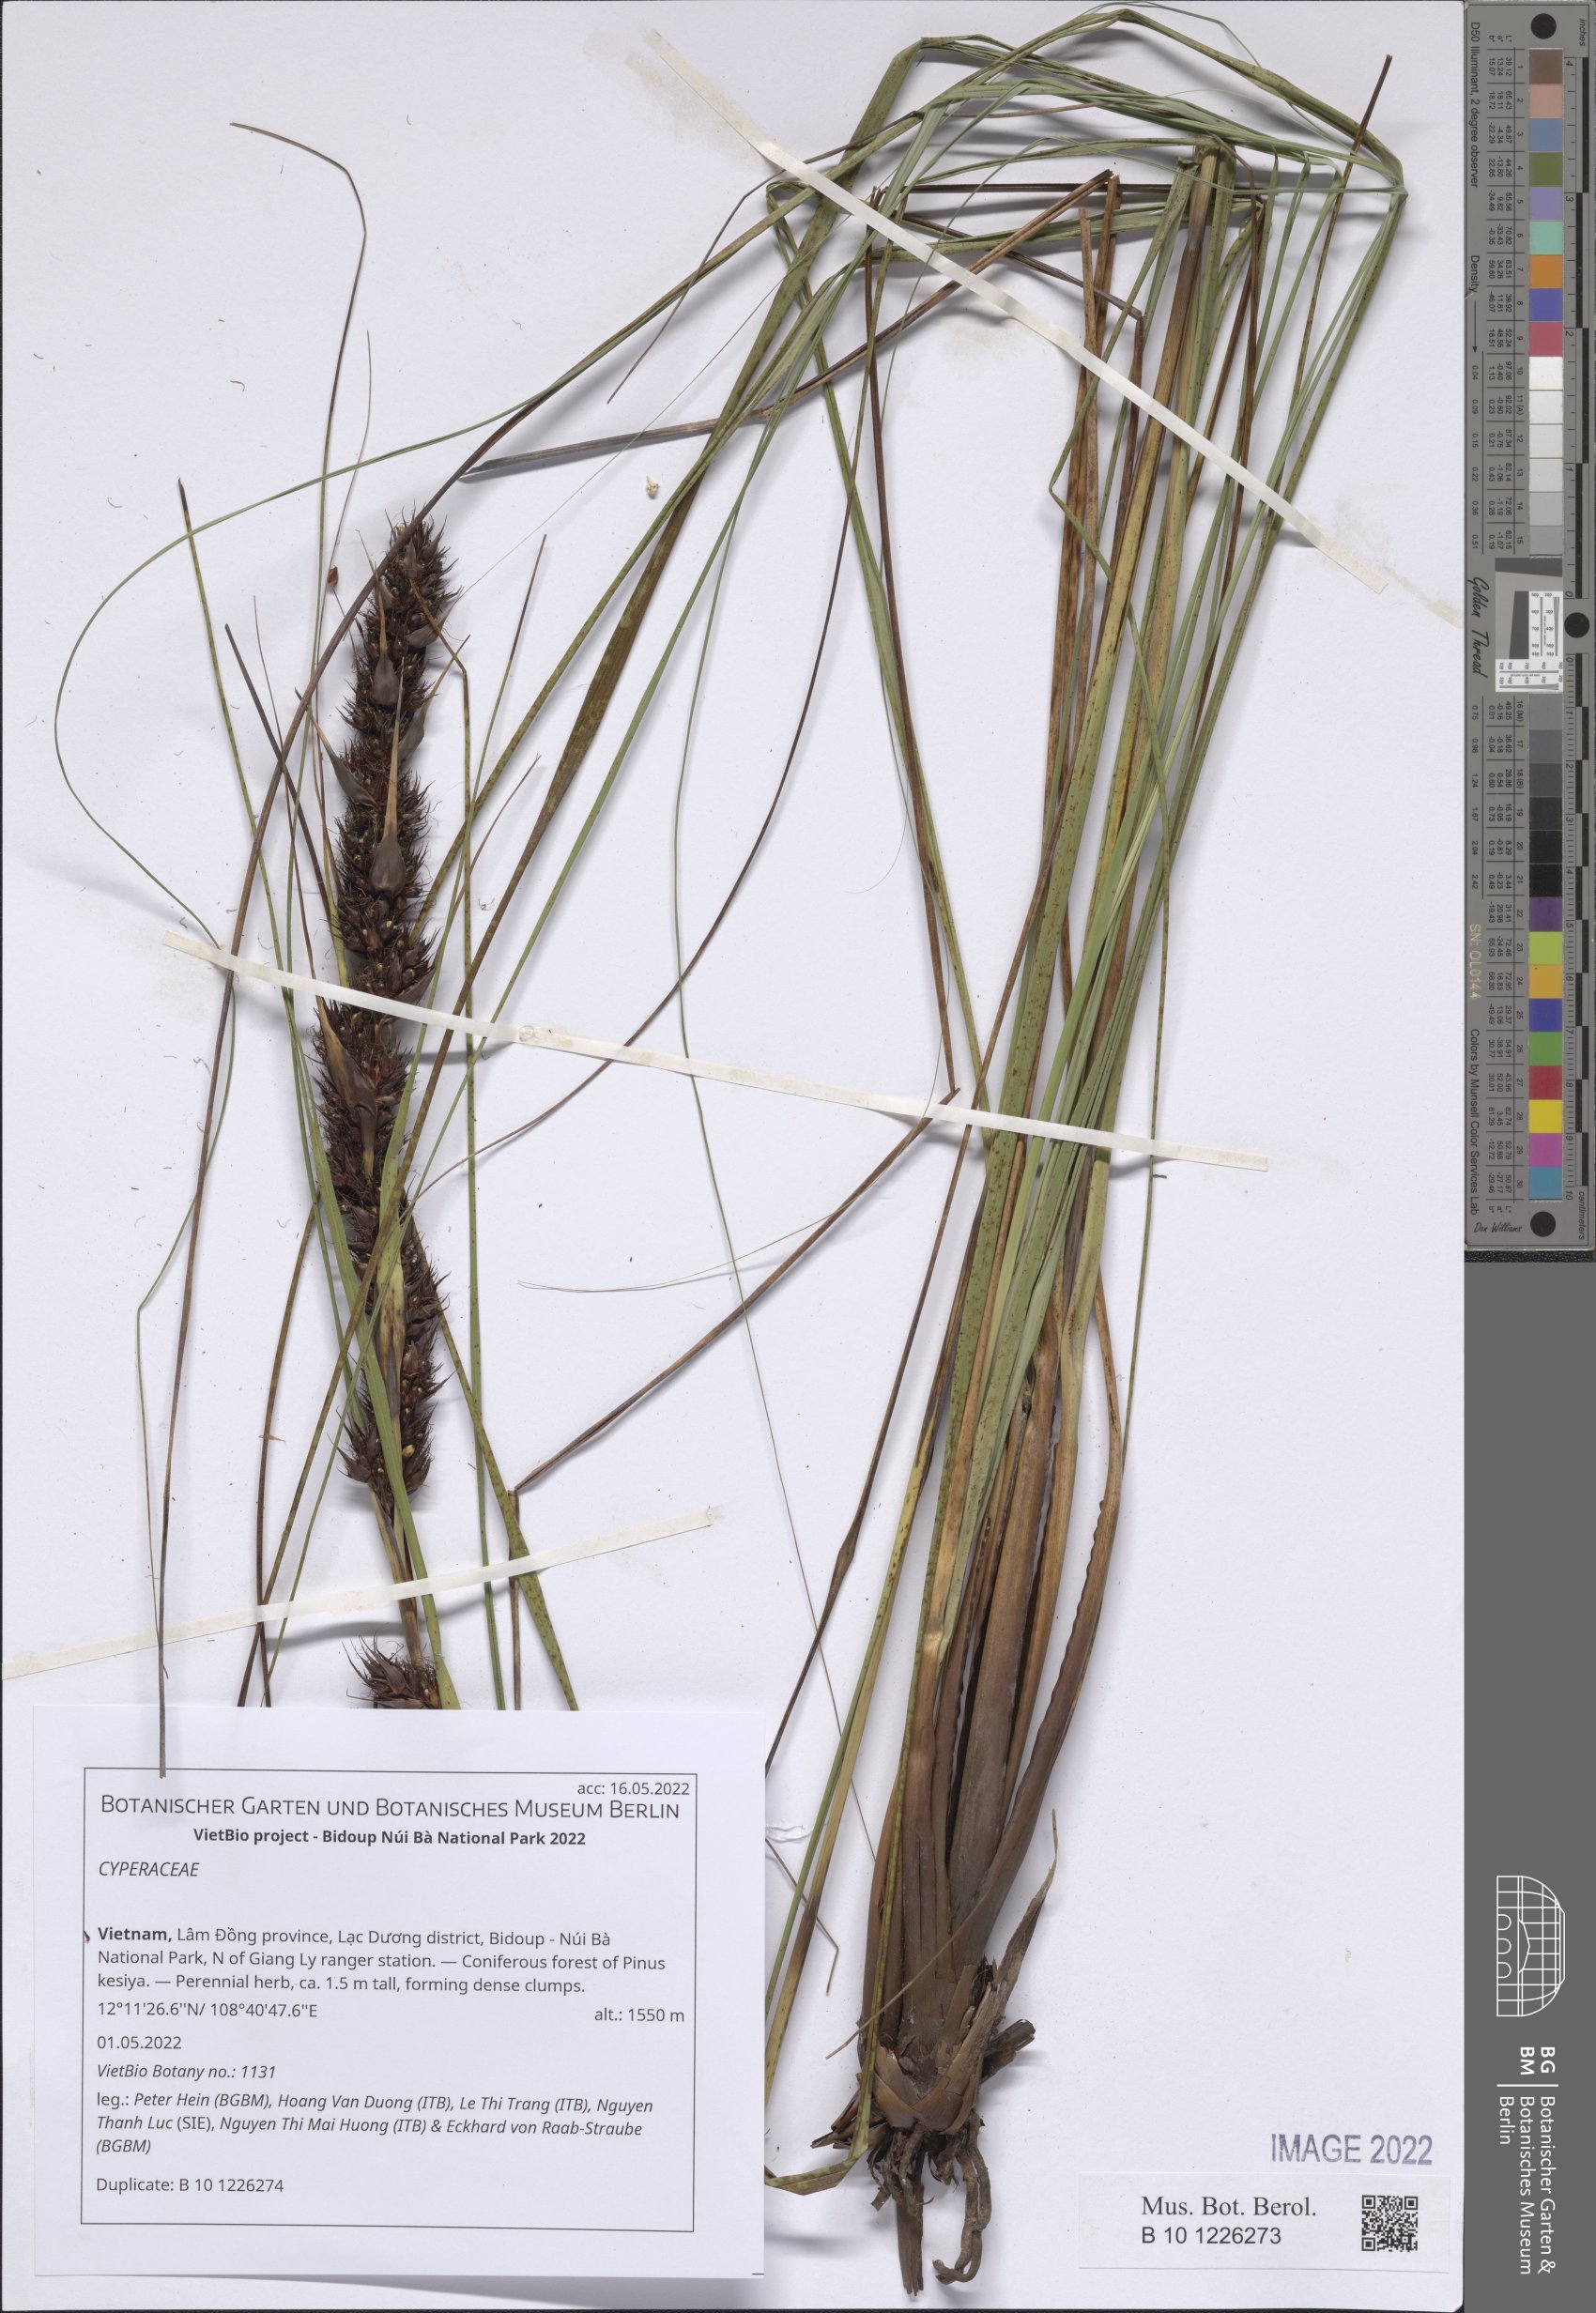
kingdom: Plantae
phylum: Tracheophyta
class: Liliopsida
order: Poales
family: Cyperaceae
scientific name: Cyperaceae
